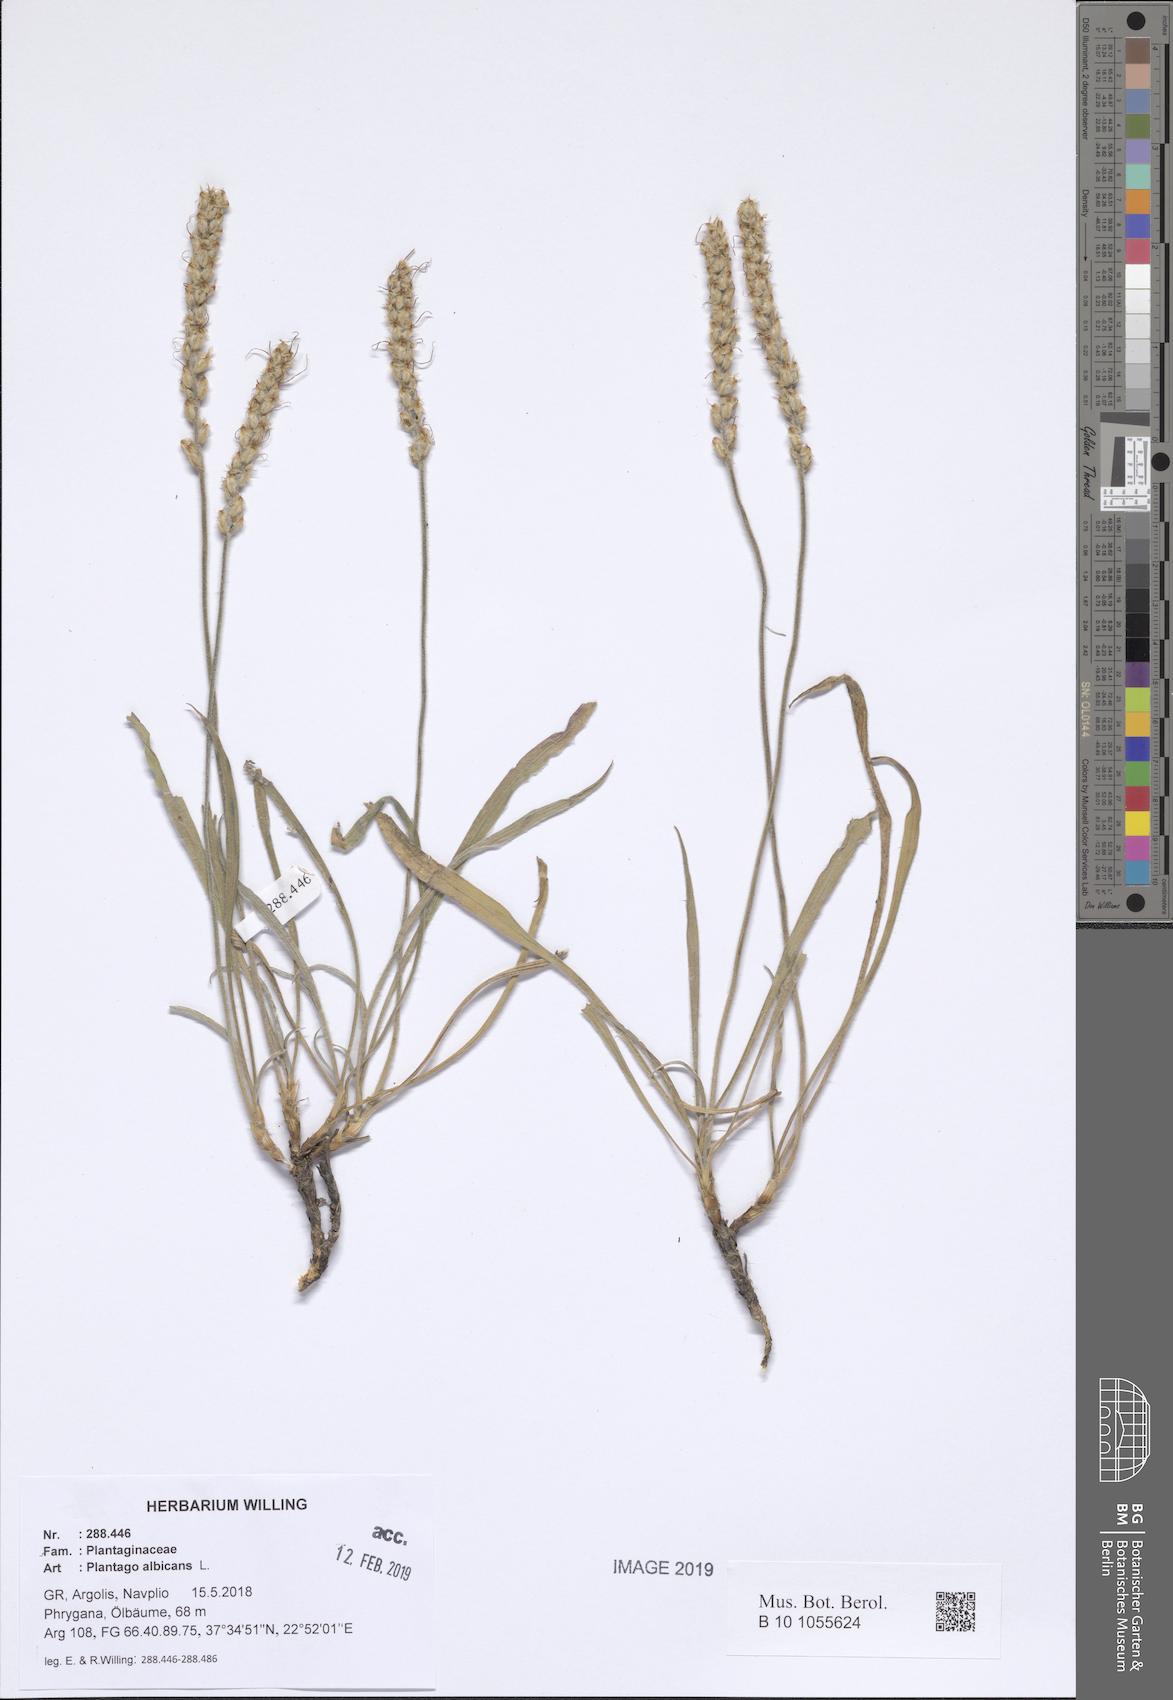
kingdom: Plantae
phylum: Tracheophyta
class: Magnoliopsida
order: Lamiales
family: Plantaginaceae
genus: Plantago
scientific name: Plantago albicans
